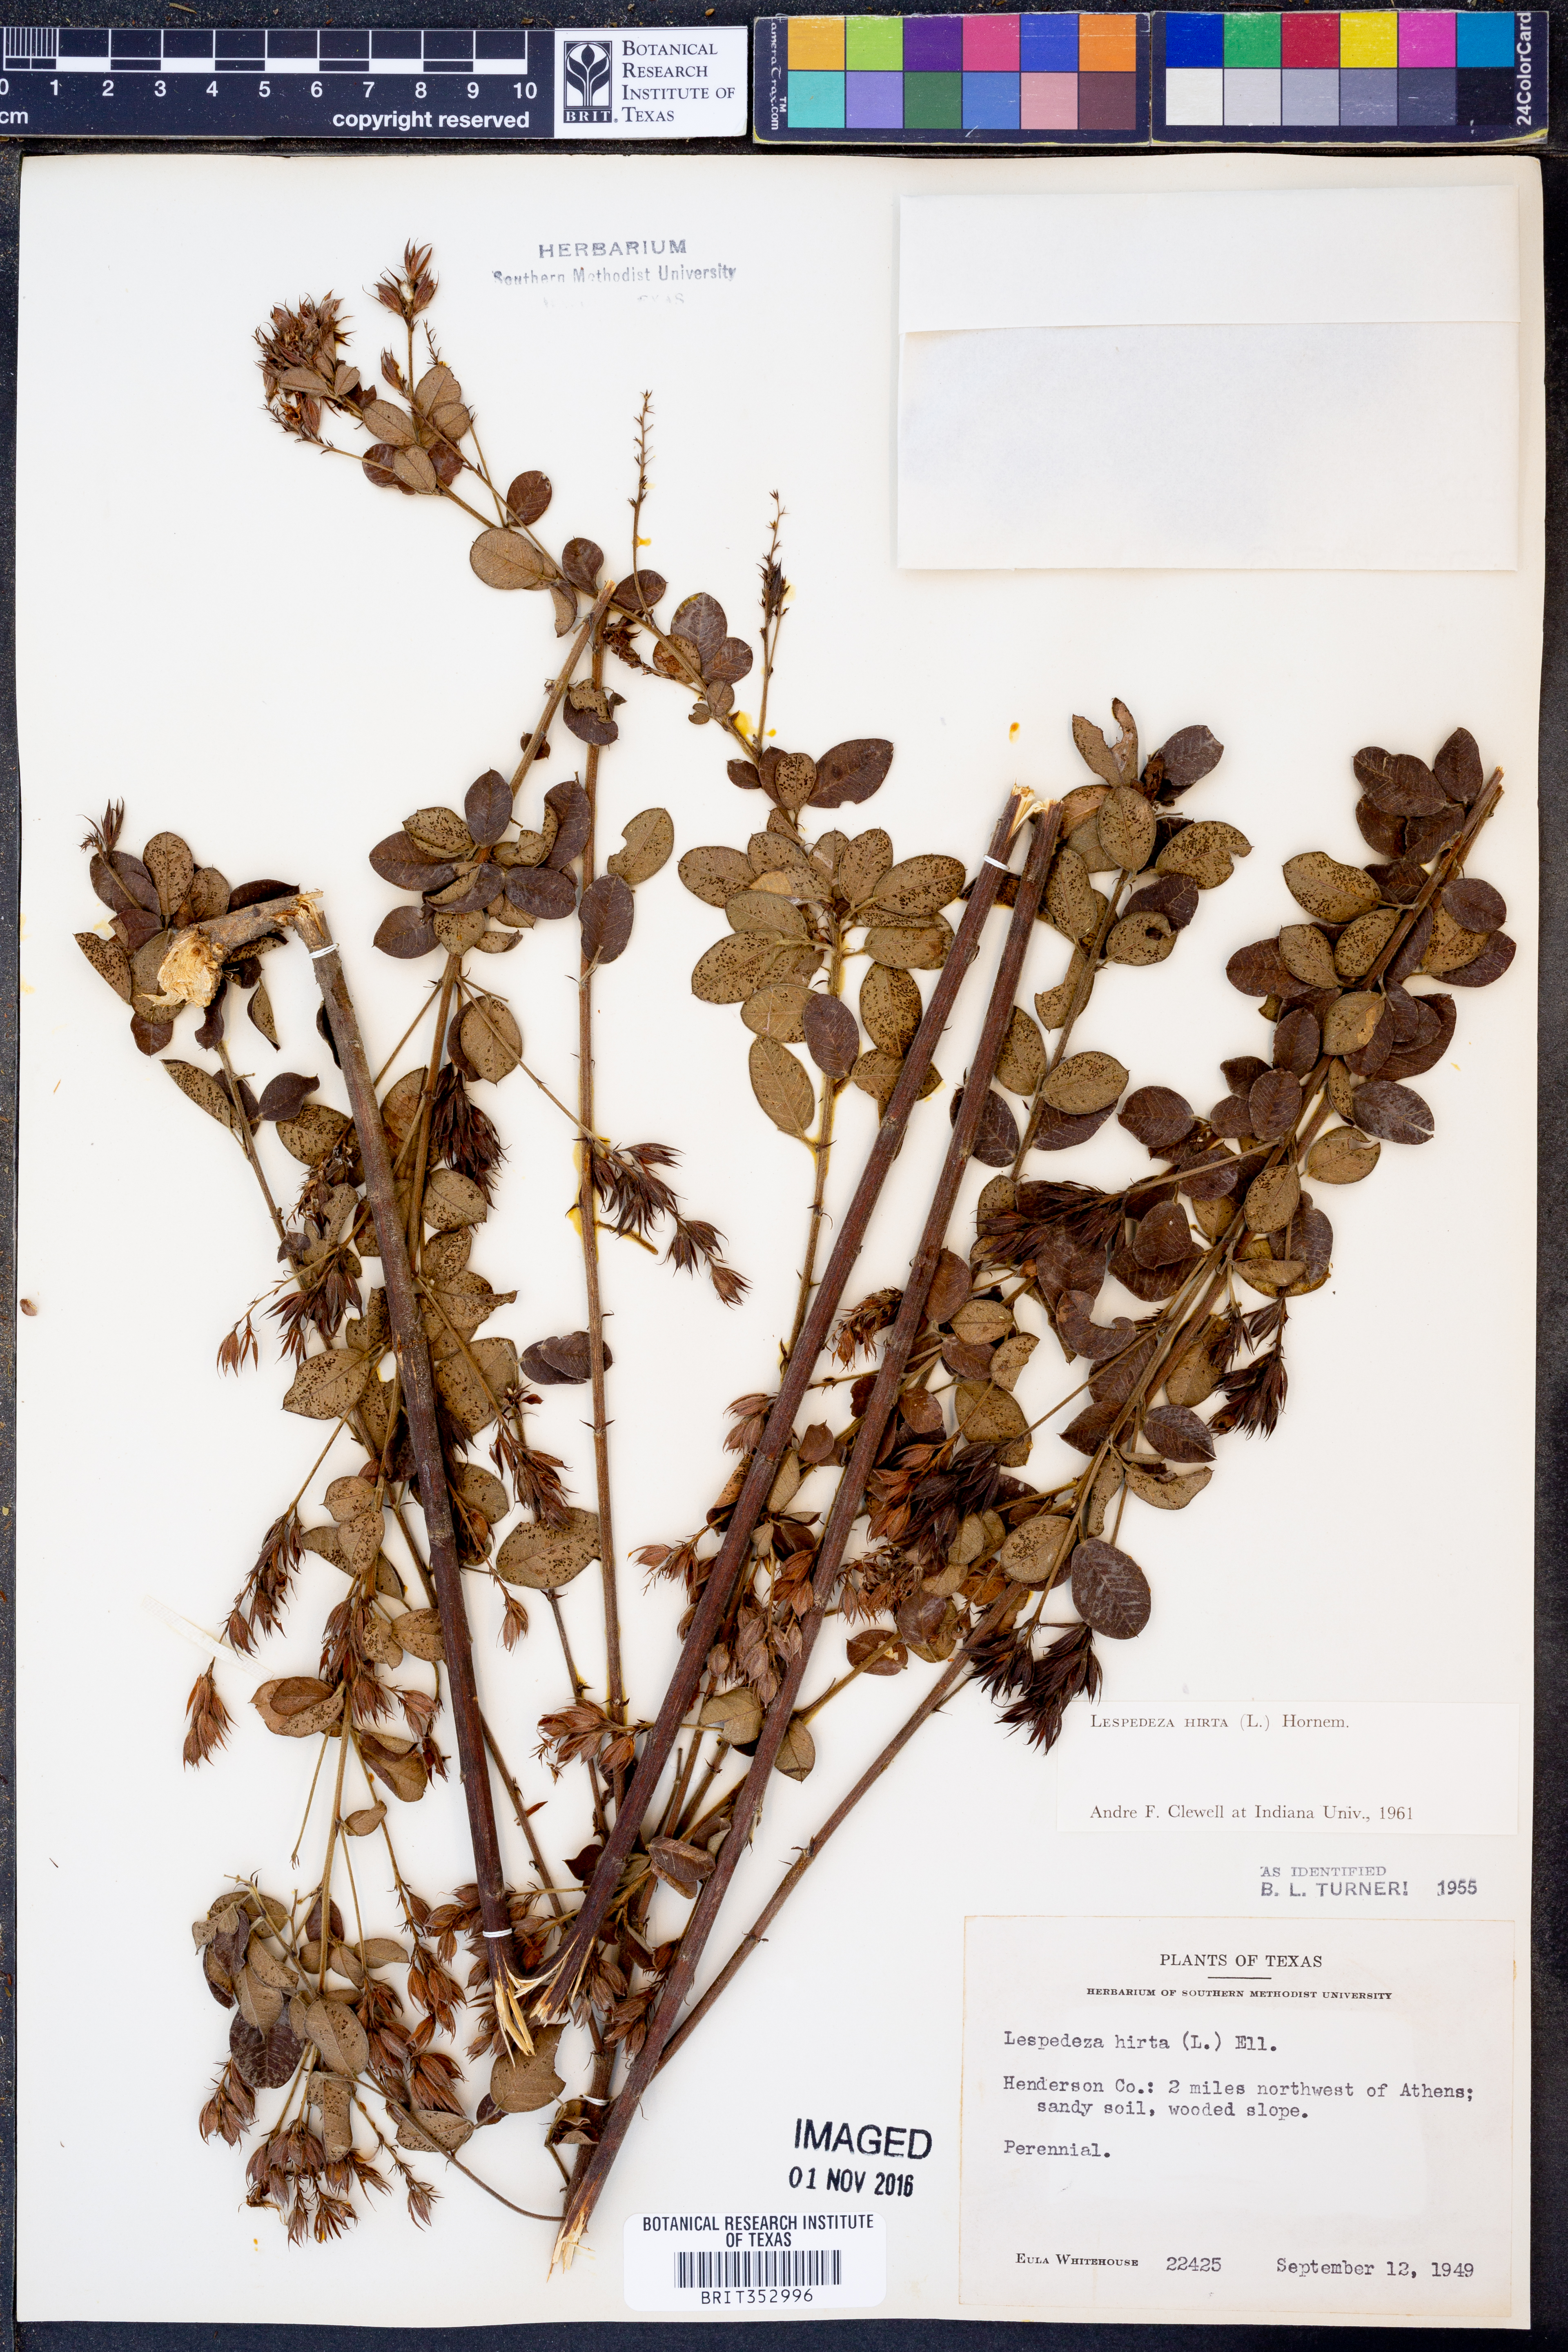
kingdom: Plantae
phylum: Tracheophyta
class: Magnoliopsida
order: Fabales
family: Fabaceae
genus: Lespedeza
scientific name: Lespedeza hirta
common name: Hairy lespedeza
